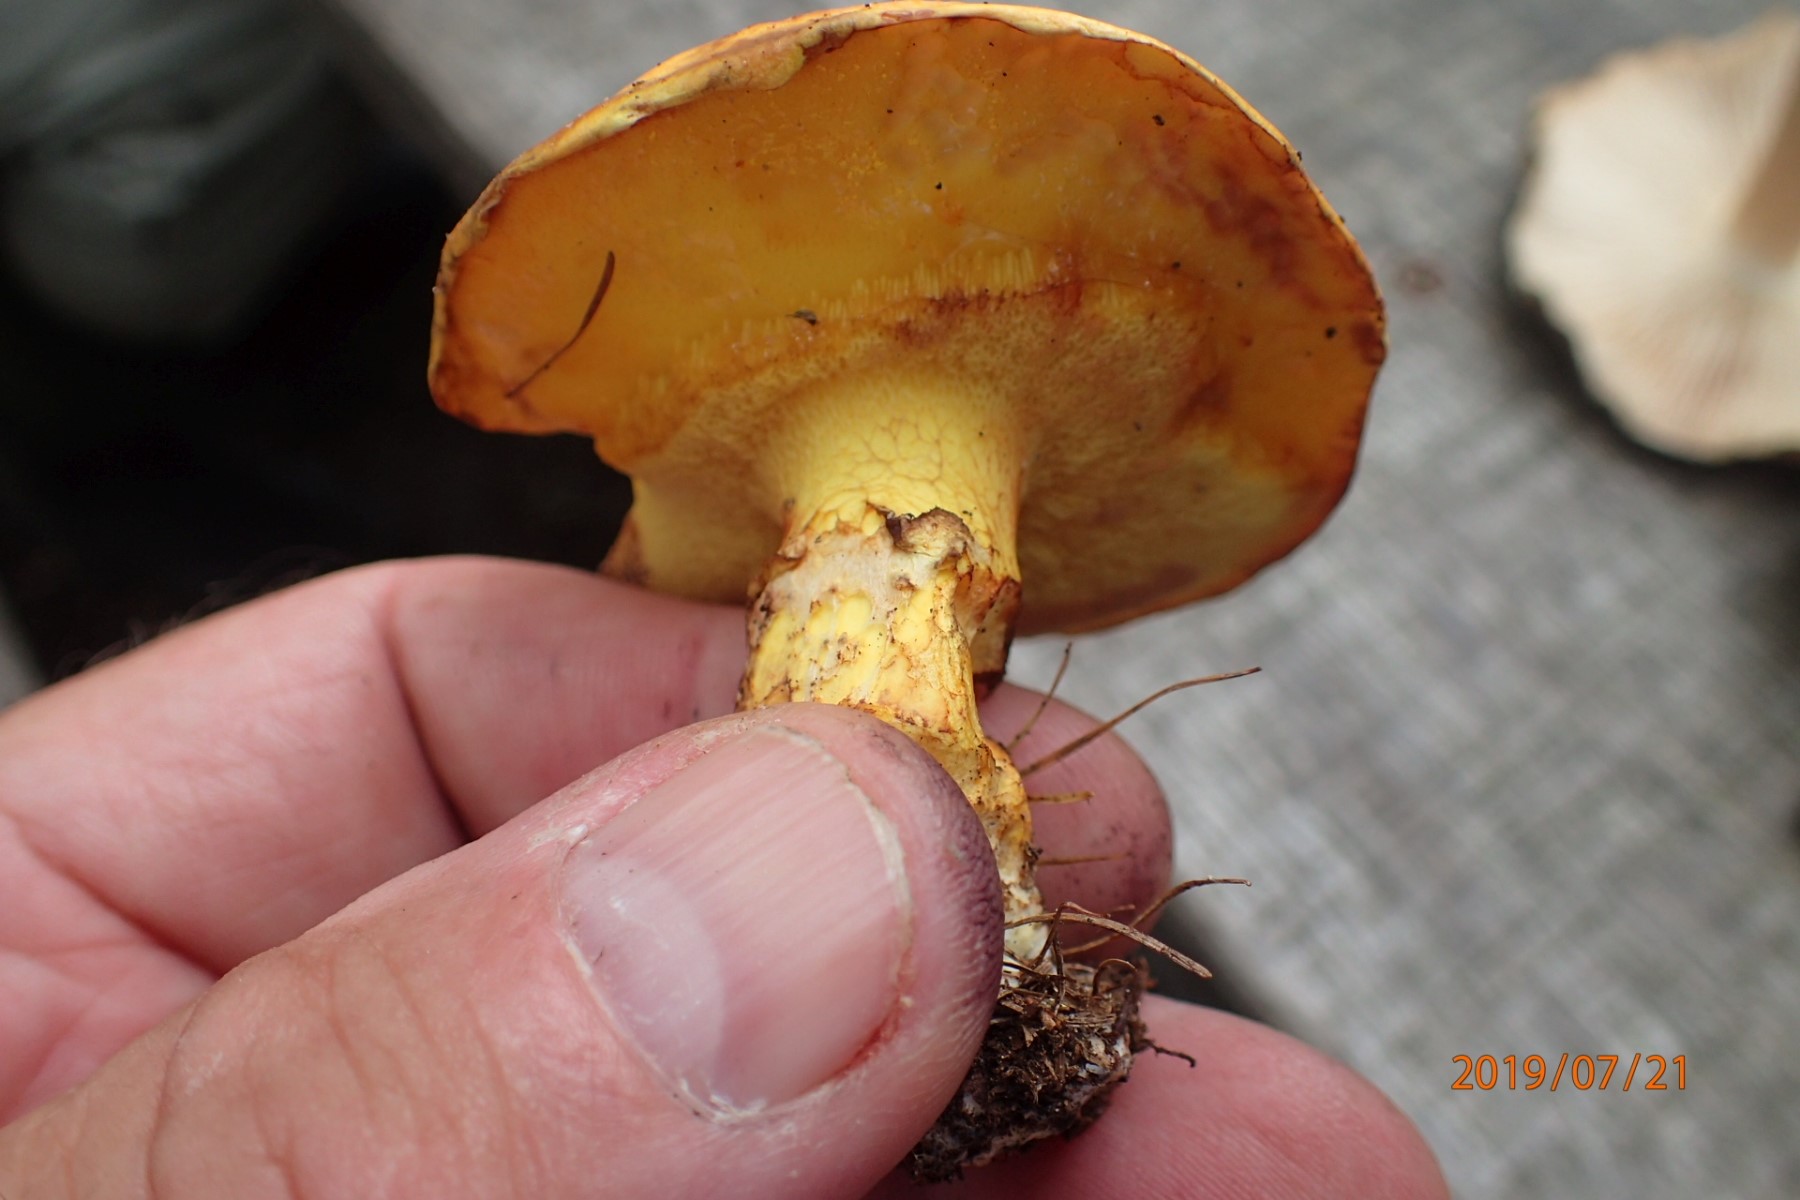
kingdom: Fungi
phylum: Basidiomycota
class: Agaricomycetes
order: Boletales
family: Suillaceae
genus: Suillus
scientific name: Suillus grevillei
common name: lærke-slimrørhat
